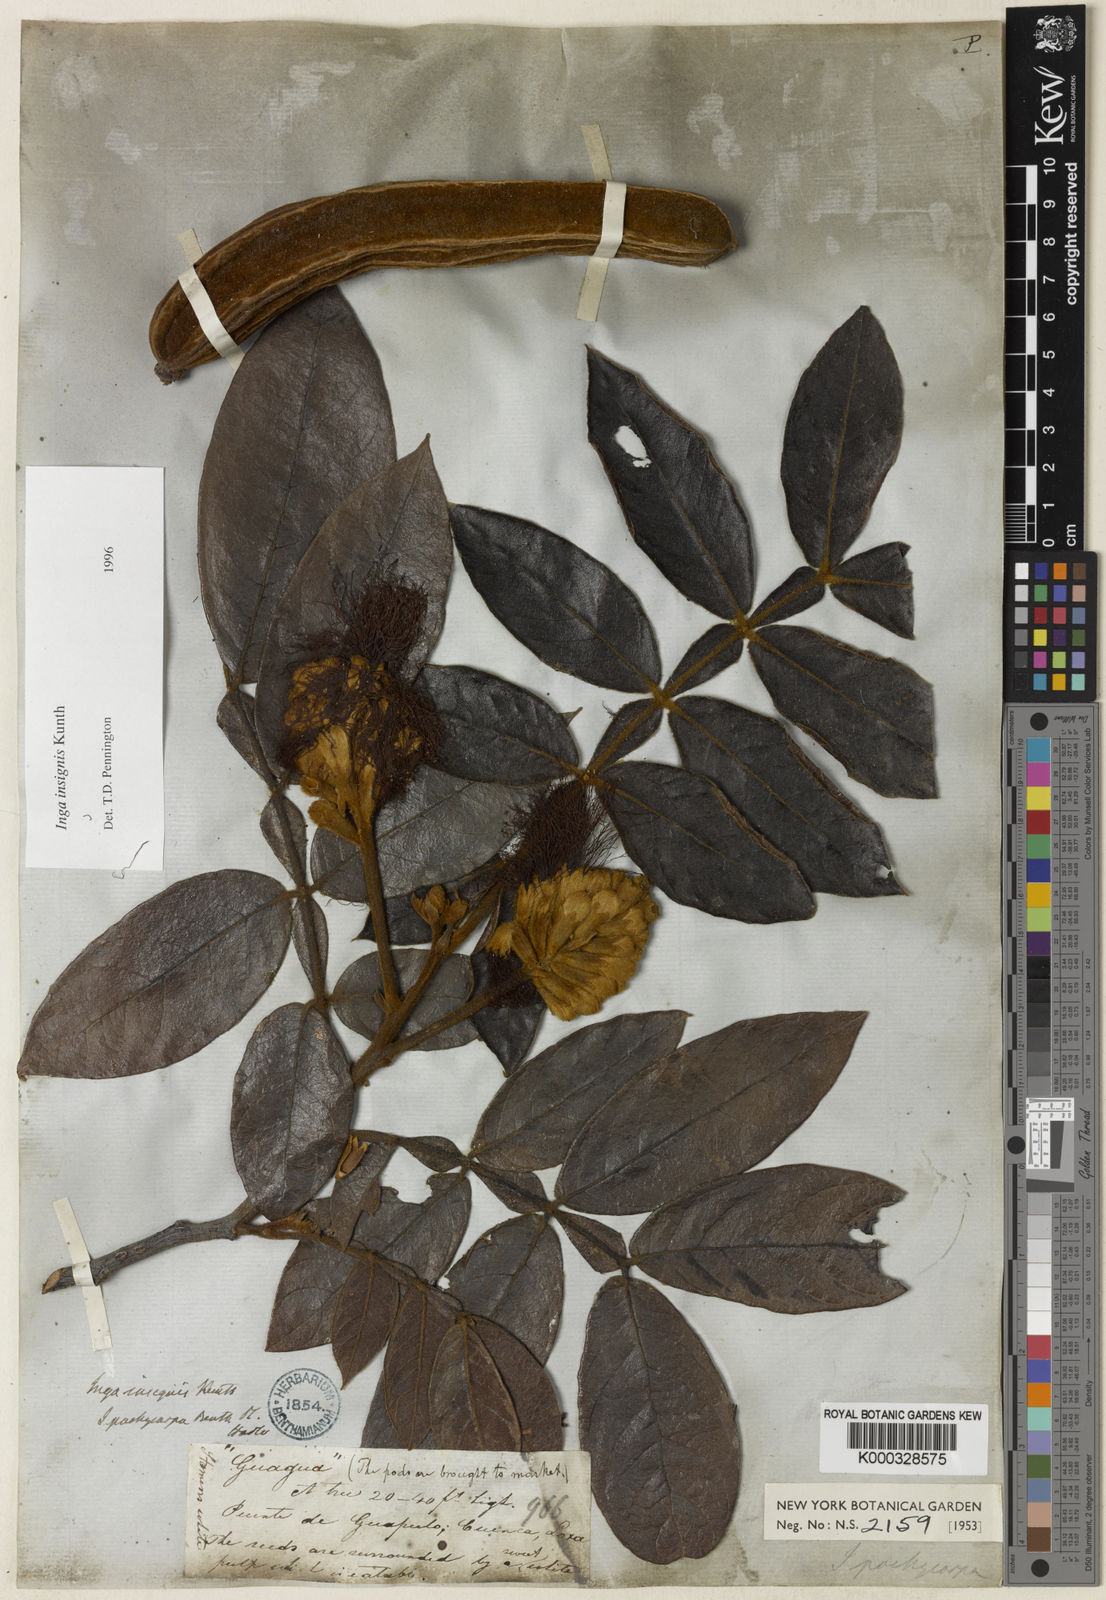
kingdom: Plantae
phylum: Tracheophyta
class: Magnoliopsida
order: Fabales
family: Fabaceae
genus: Inga
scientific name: Inga insignis
